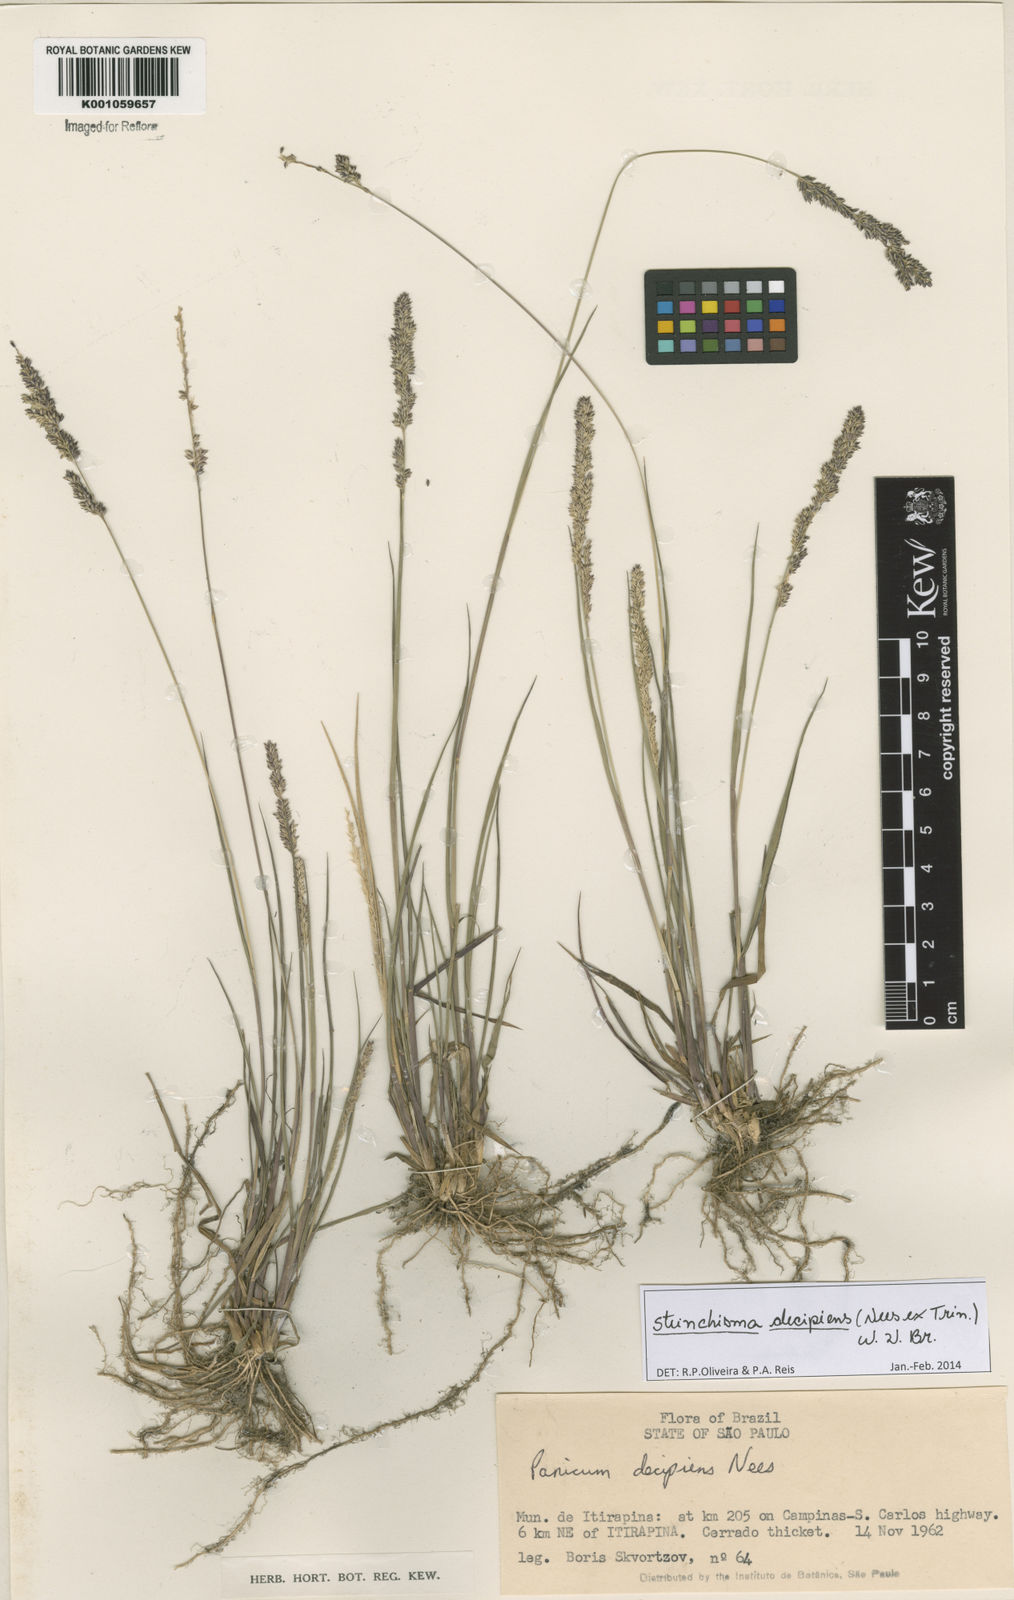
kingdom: Plantae
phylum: Tracheophyta
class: Liliopsida
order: Poales
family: Poaceae
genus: Steinchisma
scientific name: Steinchisma decipiens
